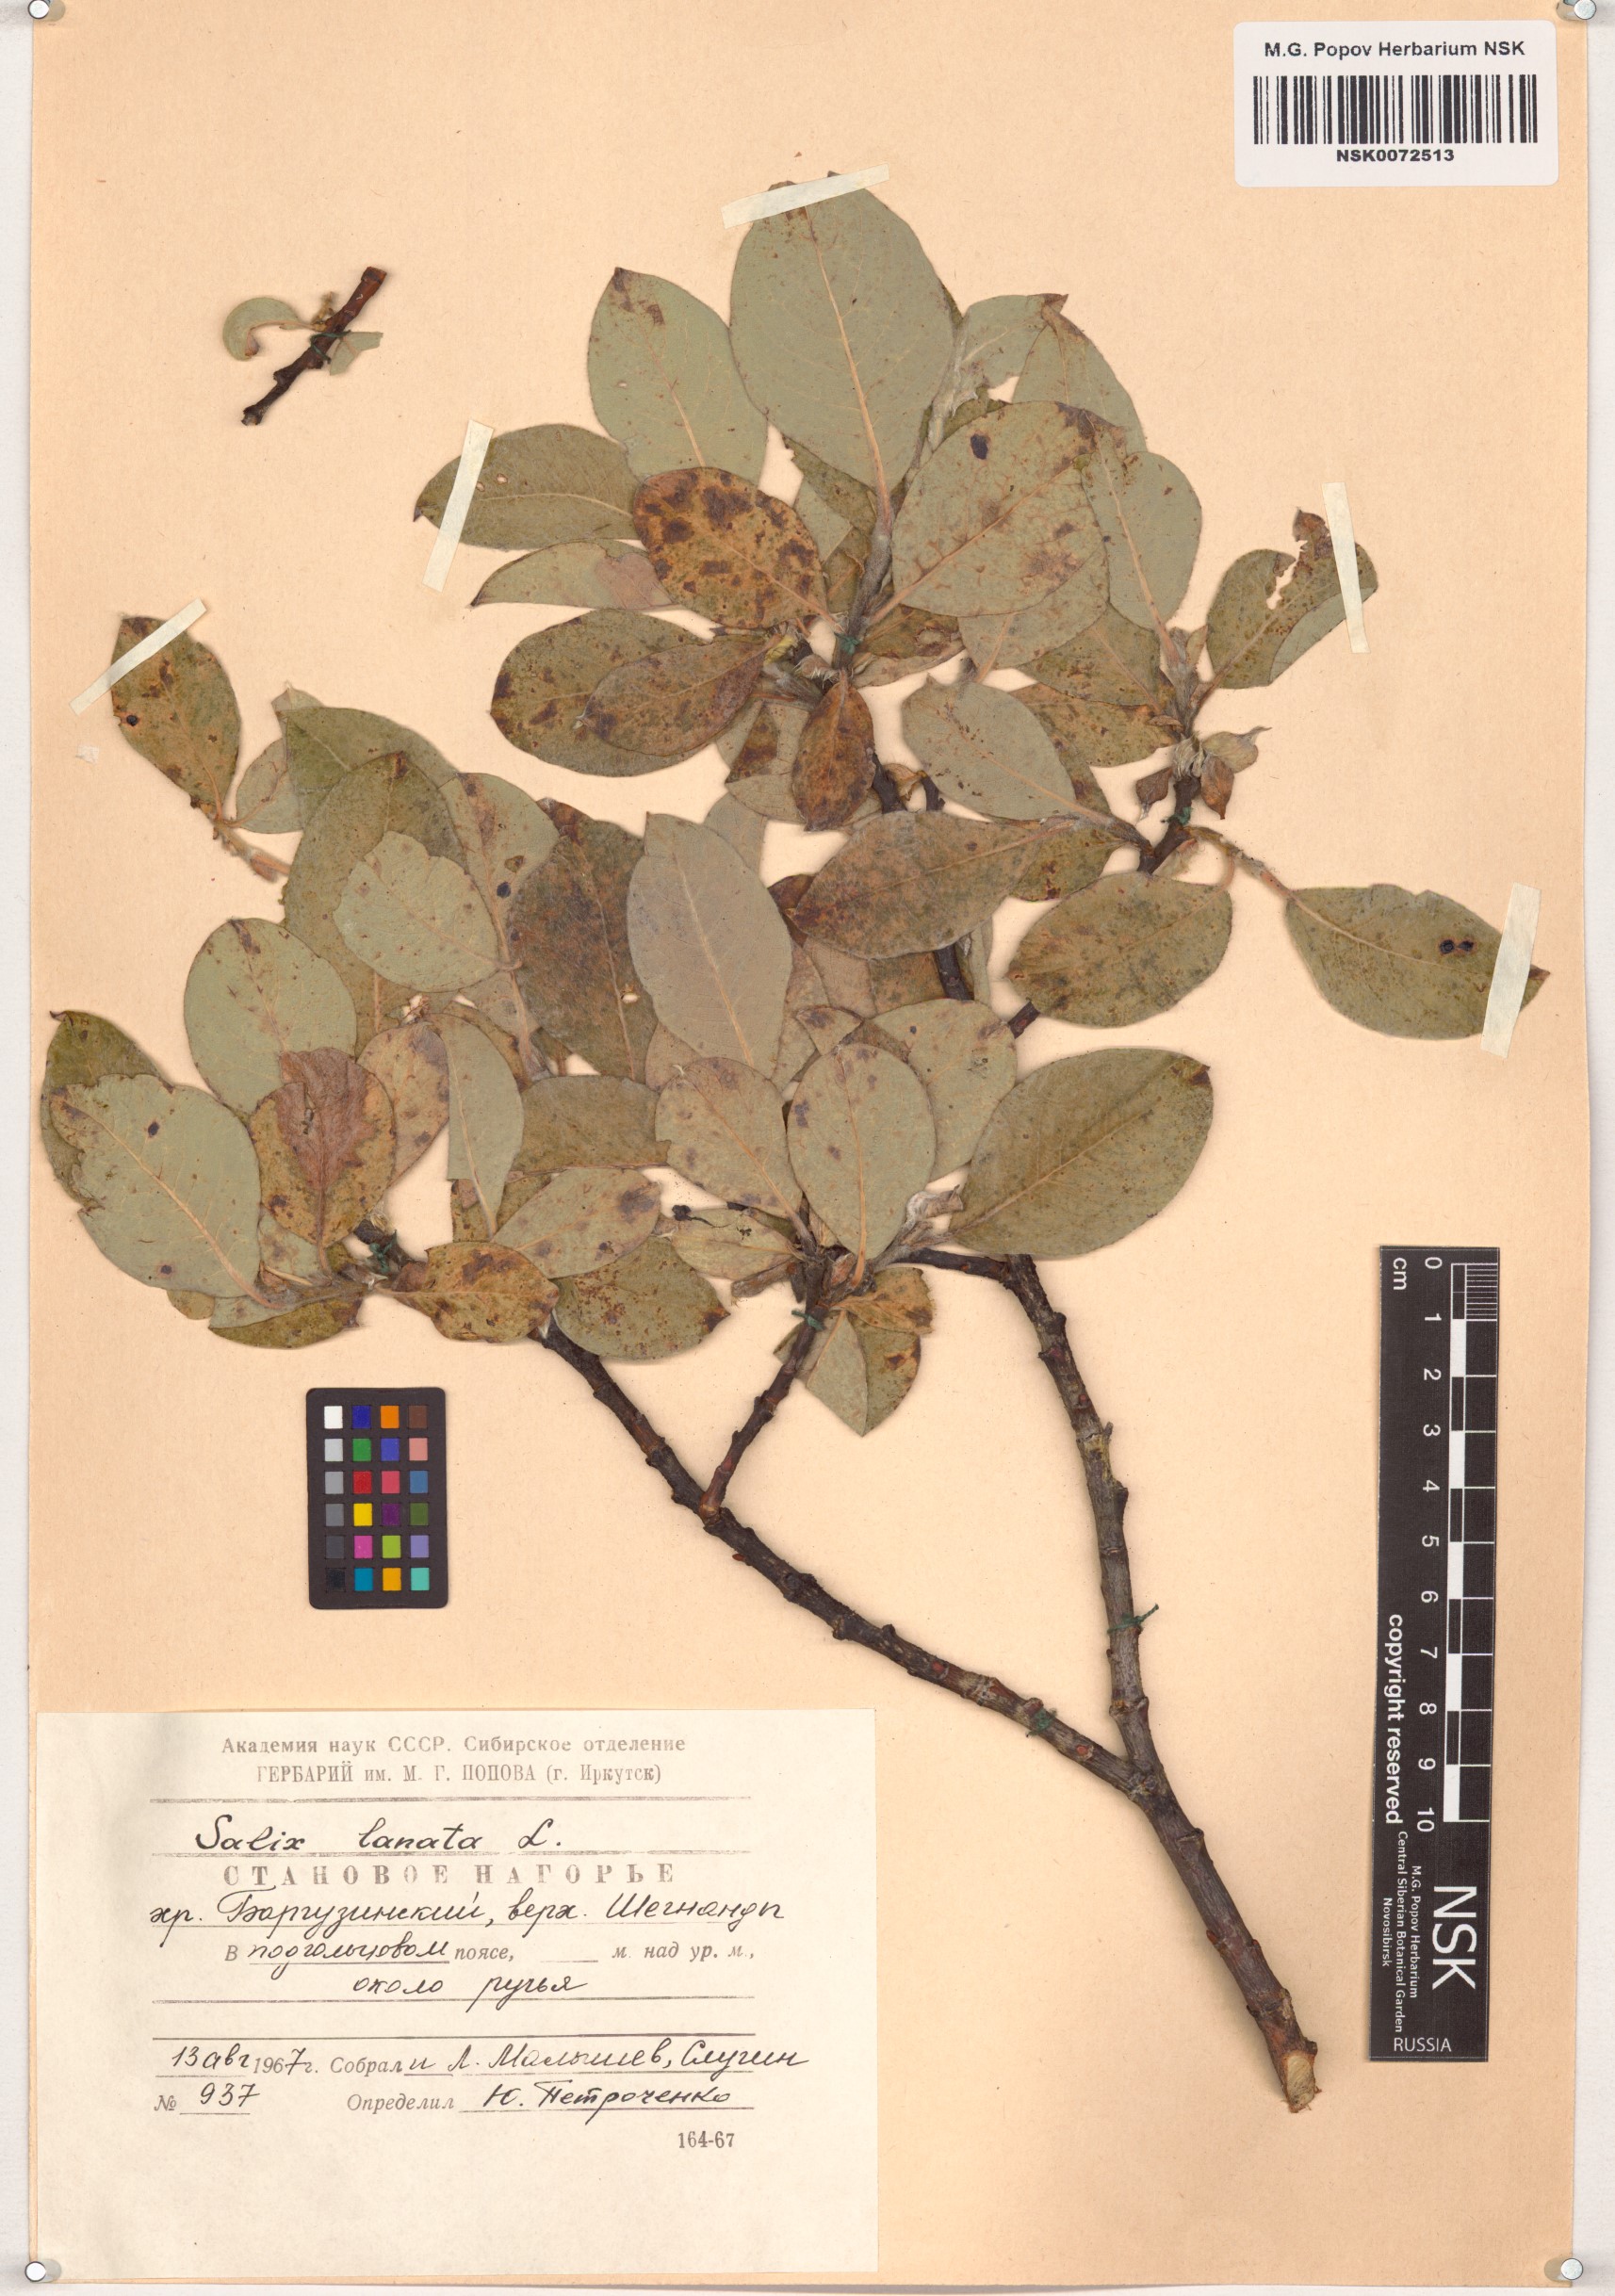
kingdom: Plantae
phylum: Tracheophyta
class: Magnoliopsida
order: Malpighiales
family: Salicaceae
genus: Salix
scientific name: Salix lanata
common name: Woolly willow
